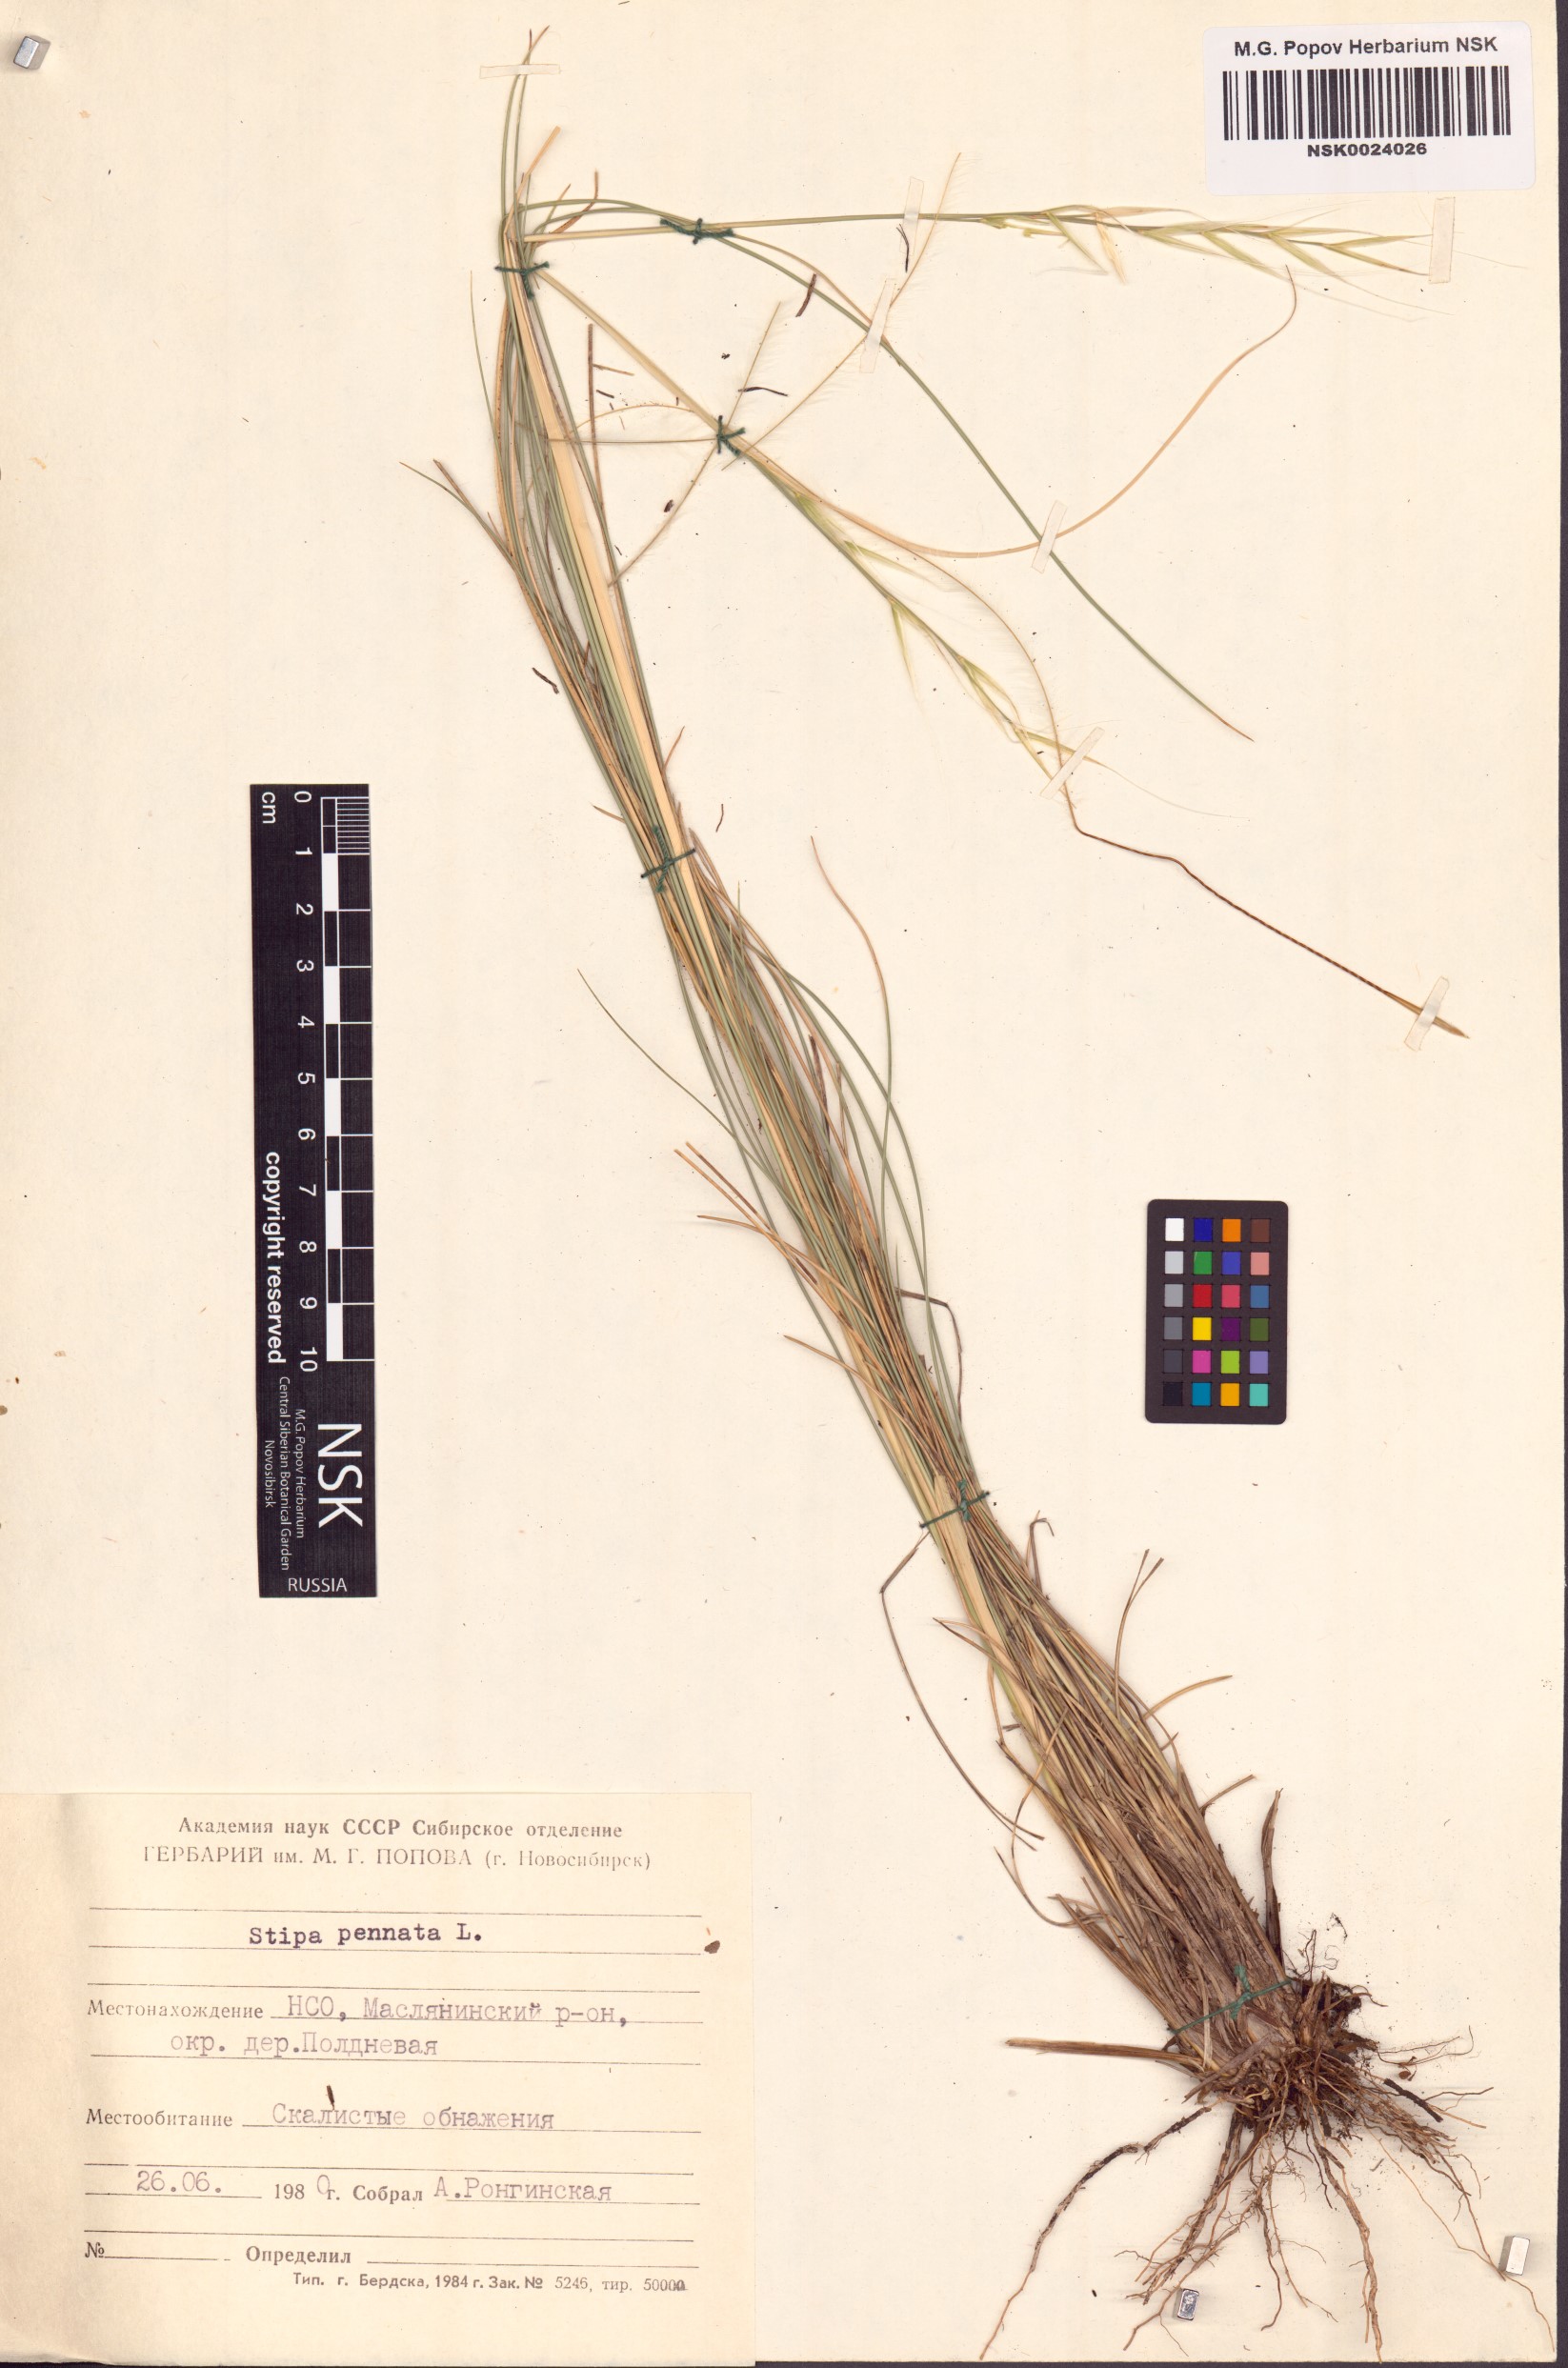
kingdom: Plantae
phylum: Tracheophyta
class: Liliopsida
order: Poales
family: Poaceae
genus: Stipa
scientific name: Stipa pennata
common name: European feather grass
